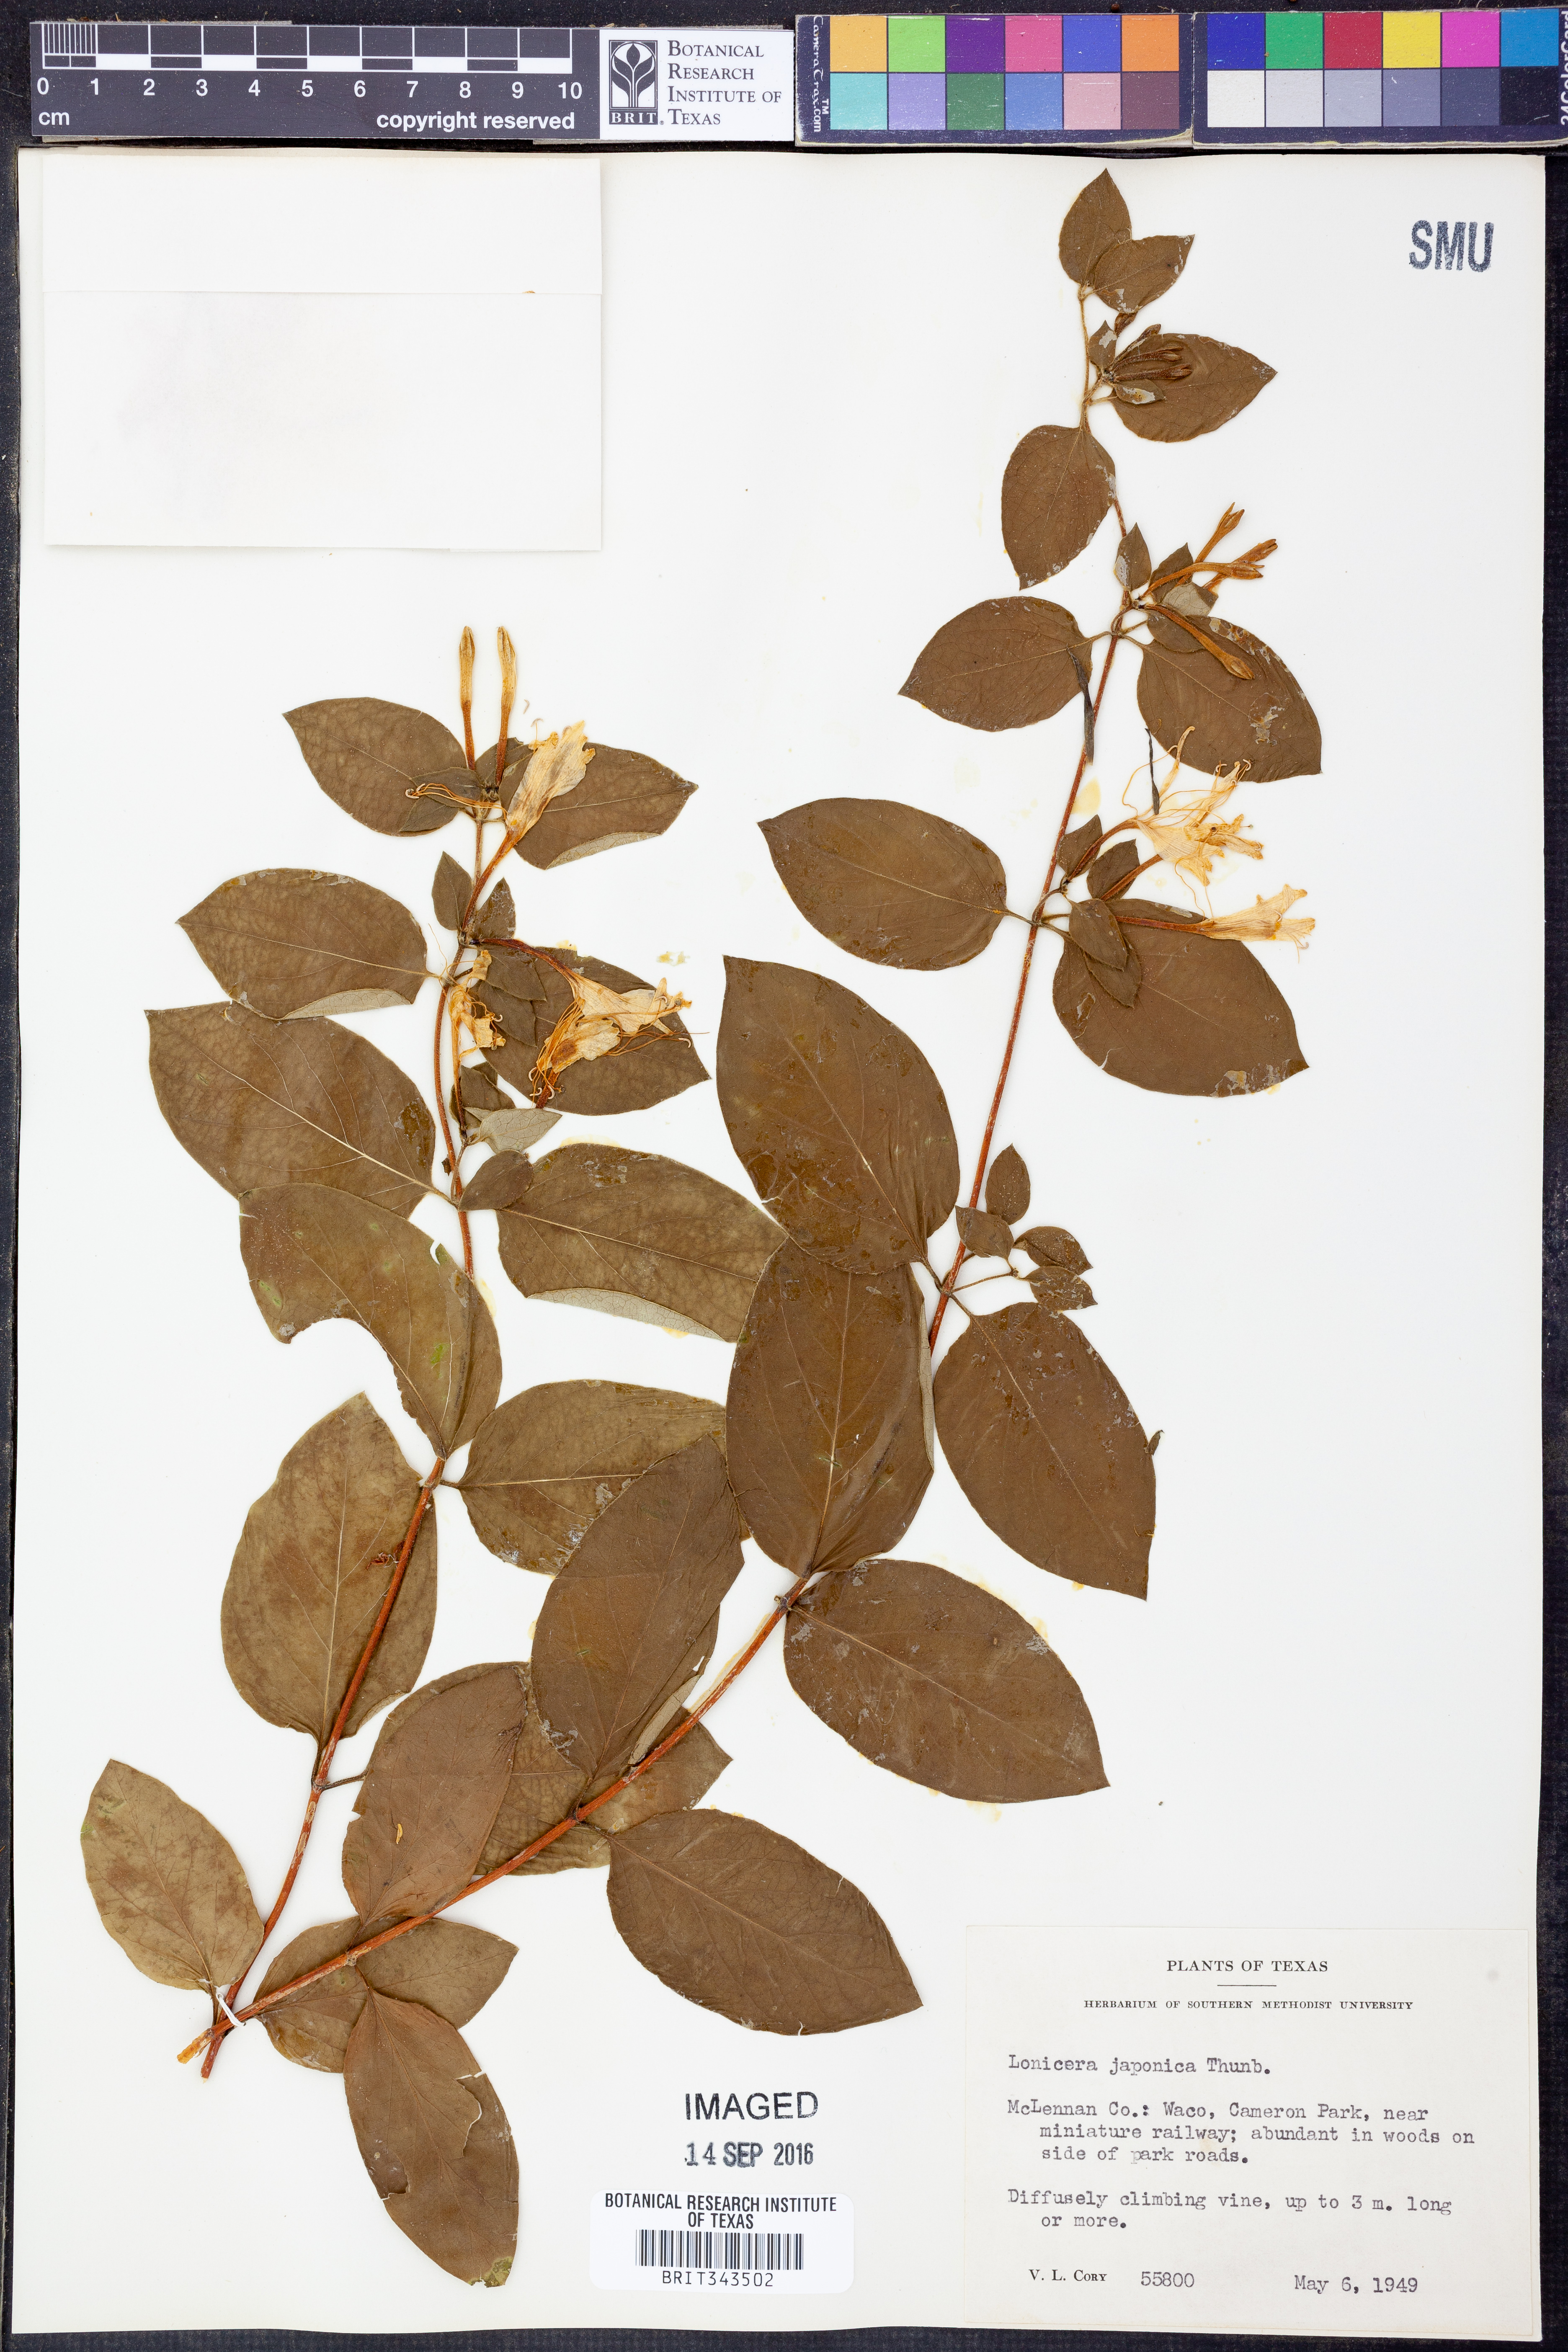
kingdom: Plantae
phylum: Tracheophyta
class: Magnoliopsida
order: Dipsacales
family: Caprifoliaceae
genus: Lonicera
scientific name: Lonicera japonica
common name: Japanese honeysuckle
